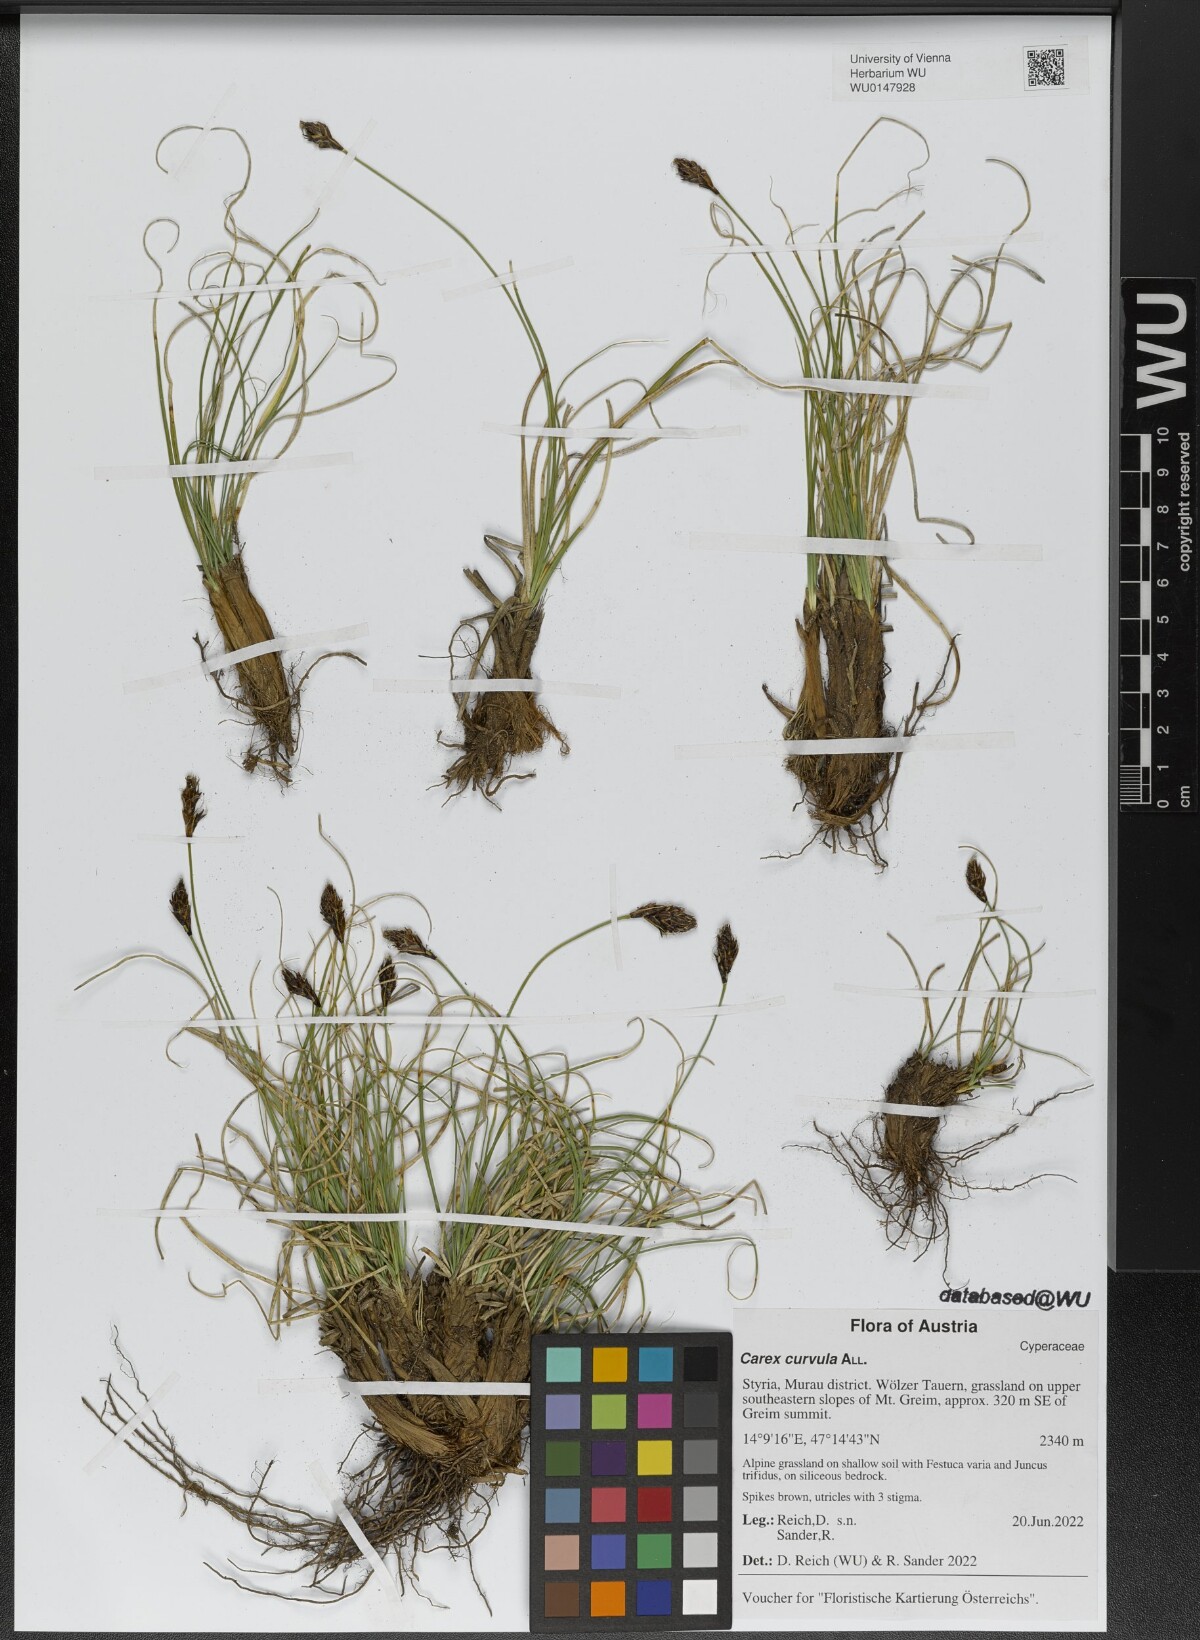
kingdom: Plantae
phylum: Tracheophyta
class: Liliopsida
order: Poales
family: Cyperaceae
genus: Carex
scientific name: Carex curvula
